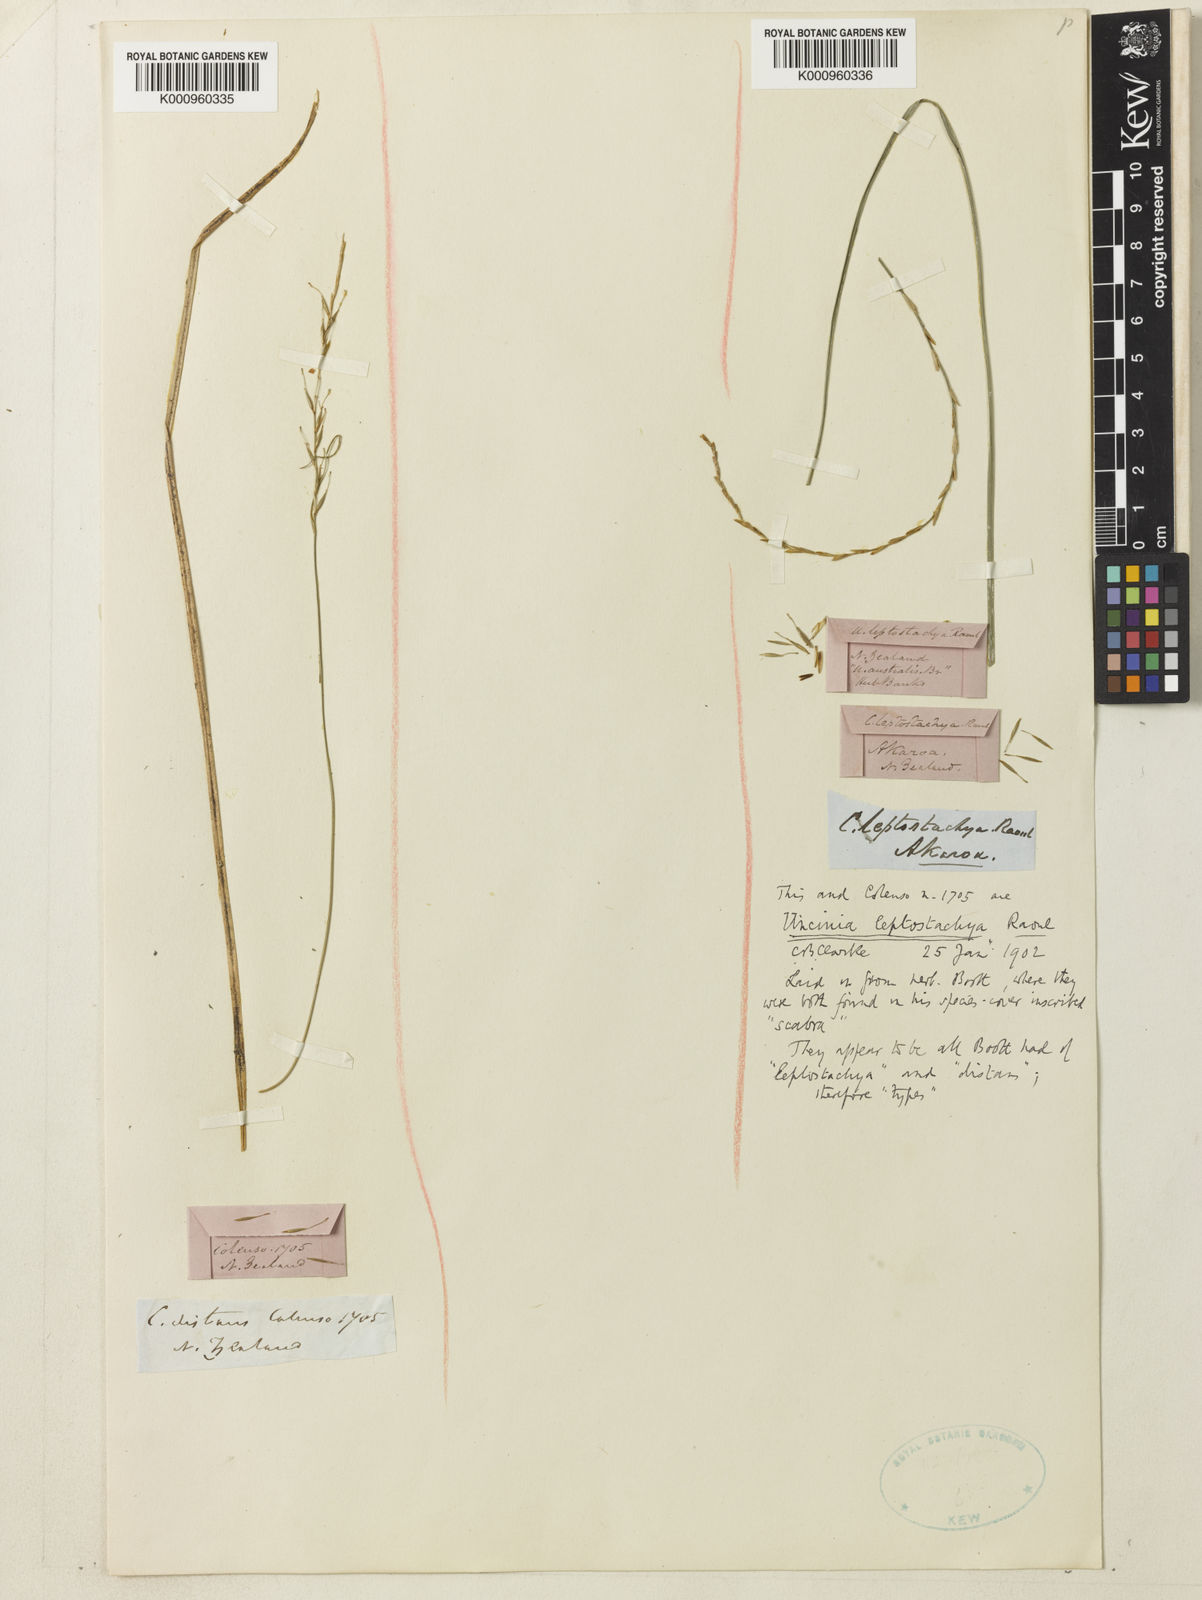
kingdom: Plantae
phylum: Tracheophyta
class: Liliopsida
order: Poales
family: Cyperaceae
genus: Carex
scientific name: Carex cyanea
